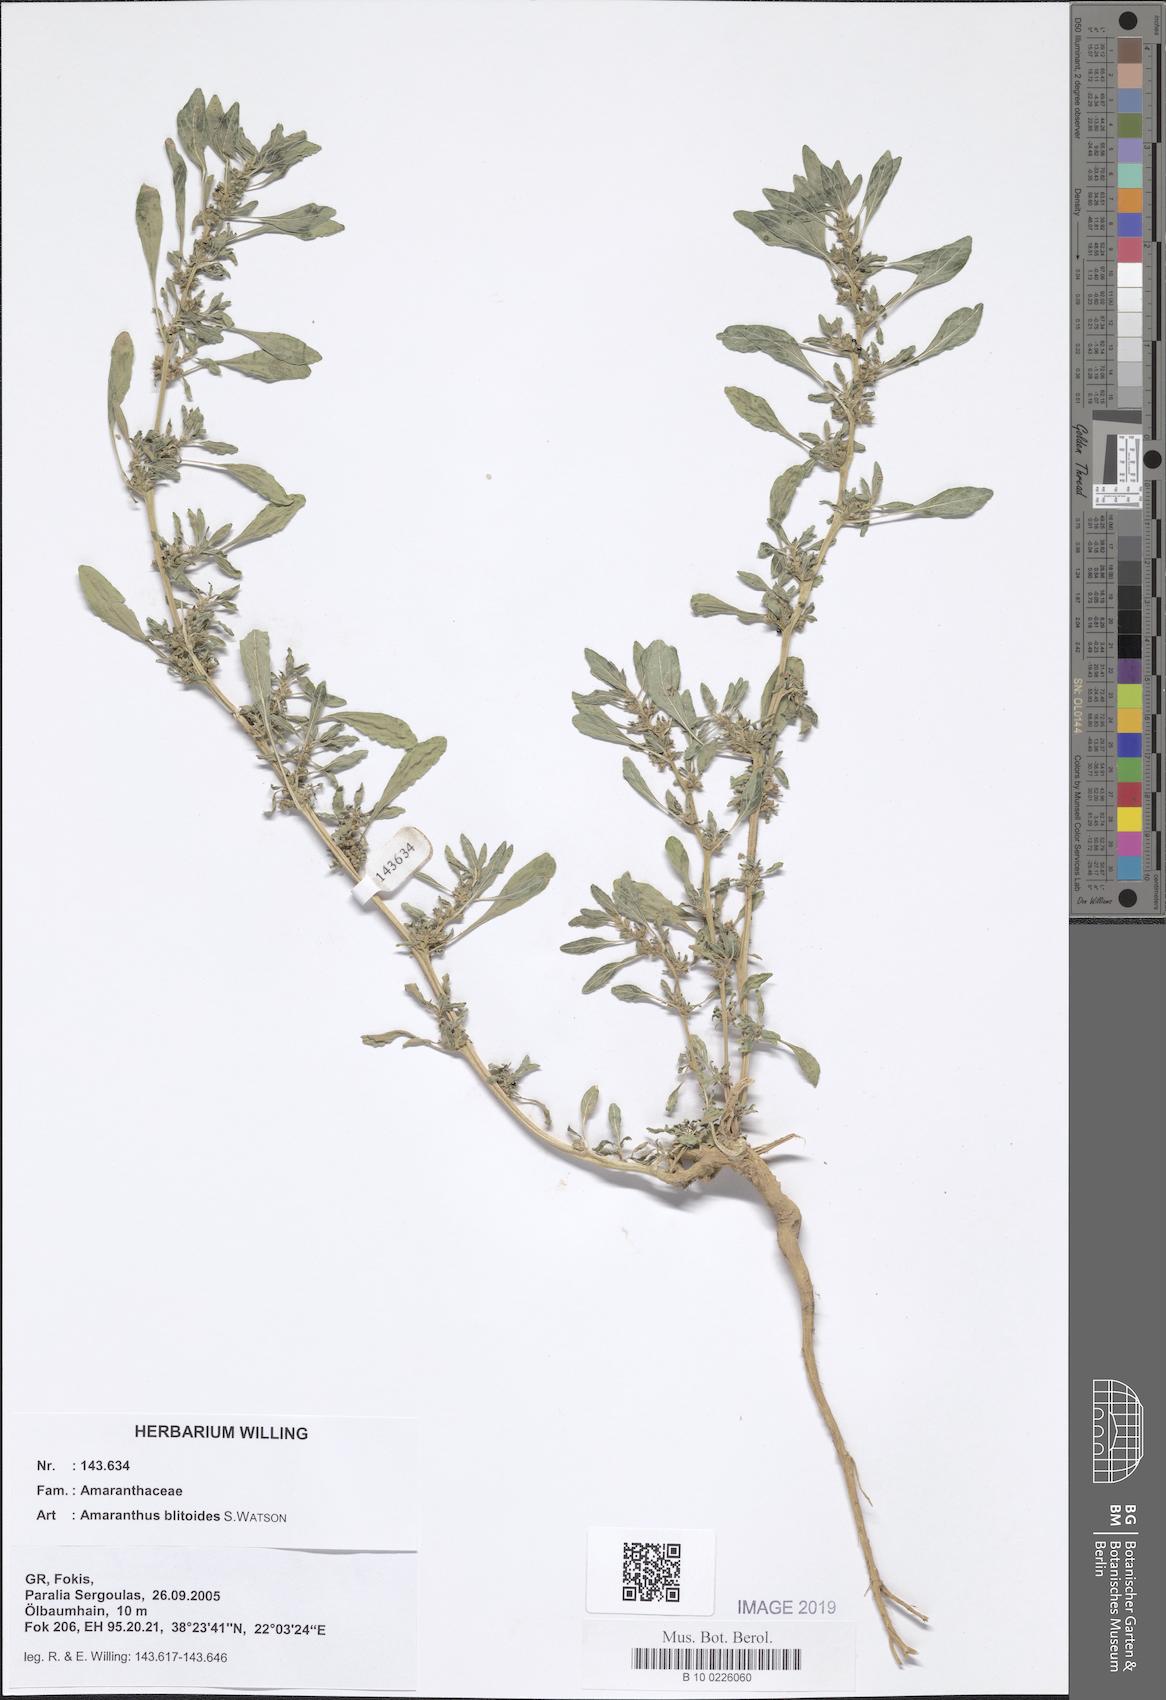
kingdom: Plantae
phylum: Tracheophyta
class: Magnoliopsida
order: Caryophyllales
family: Amaranthaceae
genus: Amaranthus
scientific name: Amaranthus blitoides
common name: Prostrate pigweed
